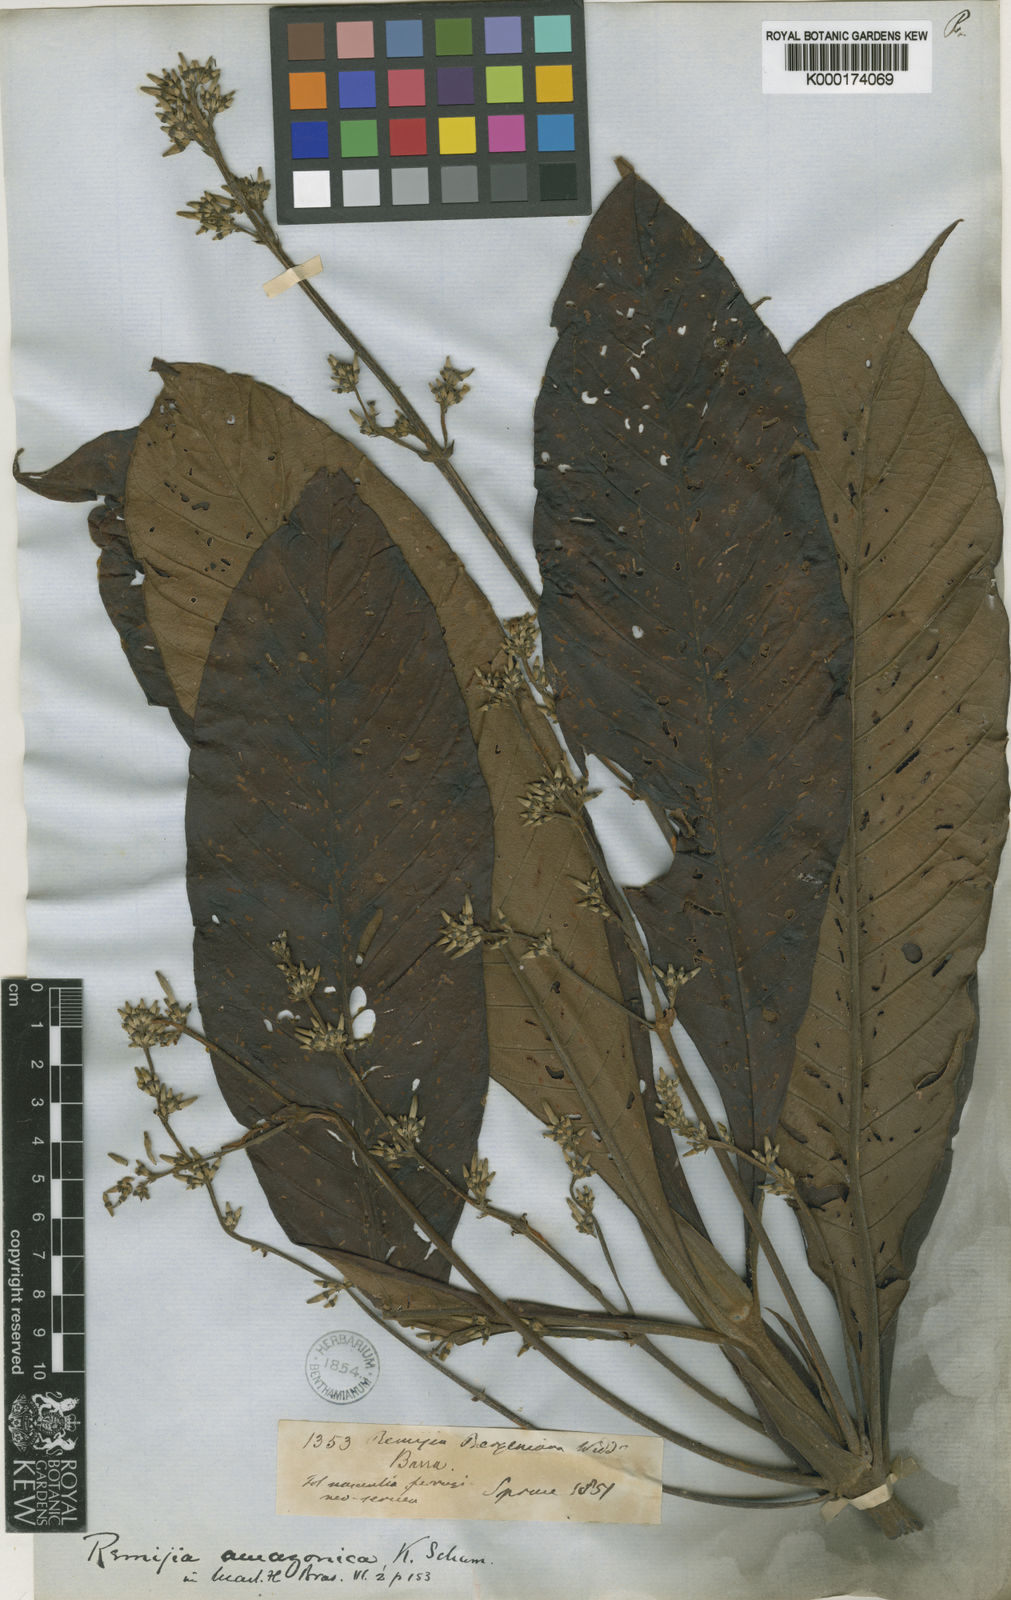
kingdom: Plantae
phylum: Tracheophyta
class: Magnoliopsida
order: Gentianales
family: Rubiaceae
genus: Remijia
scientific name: Remijia amazonica
